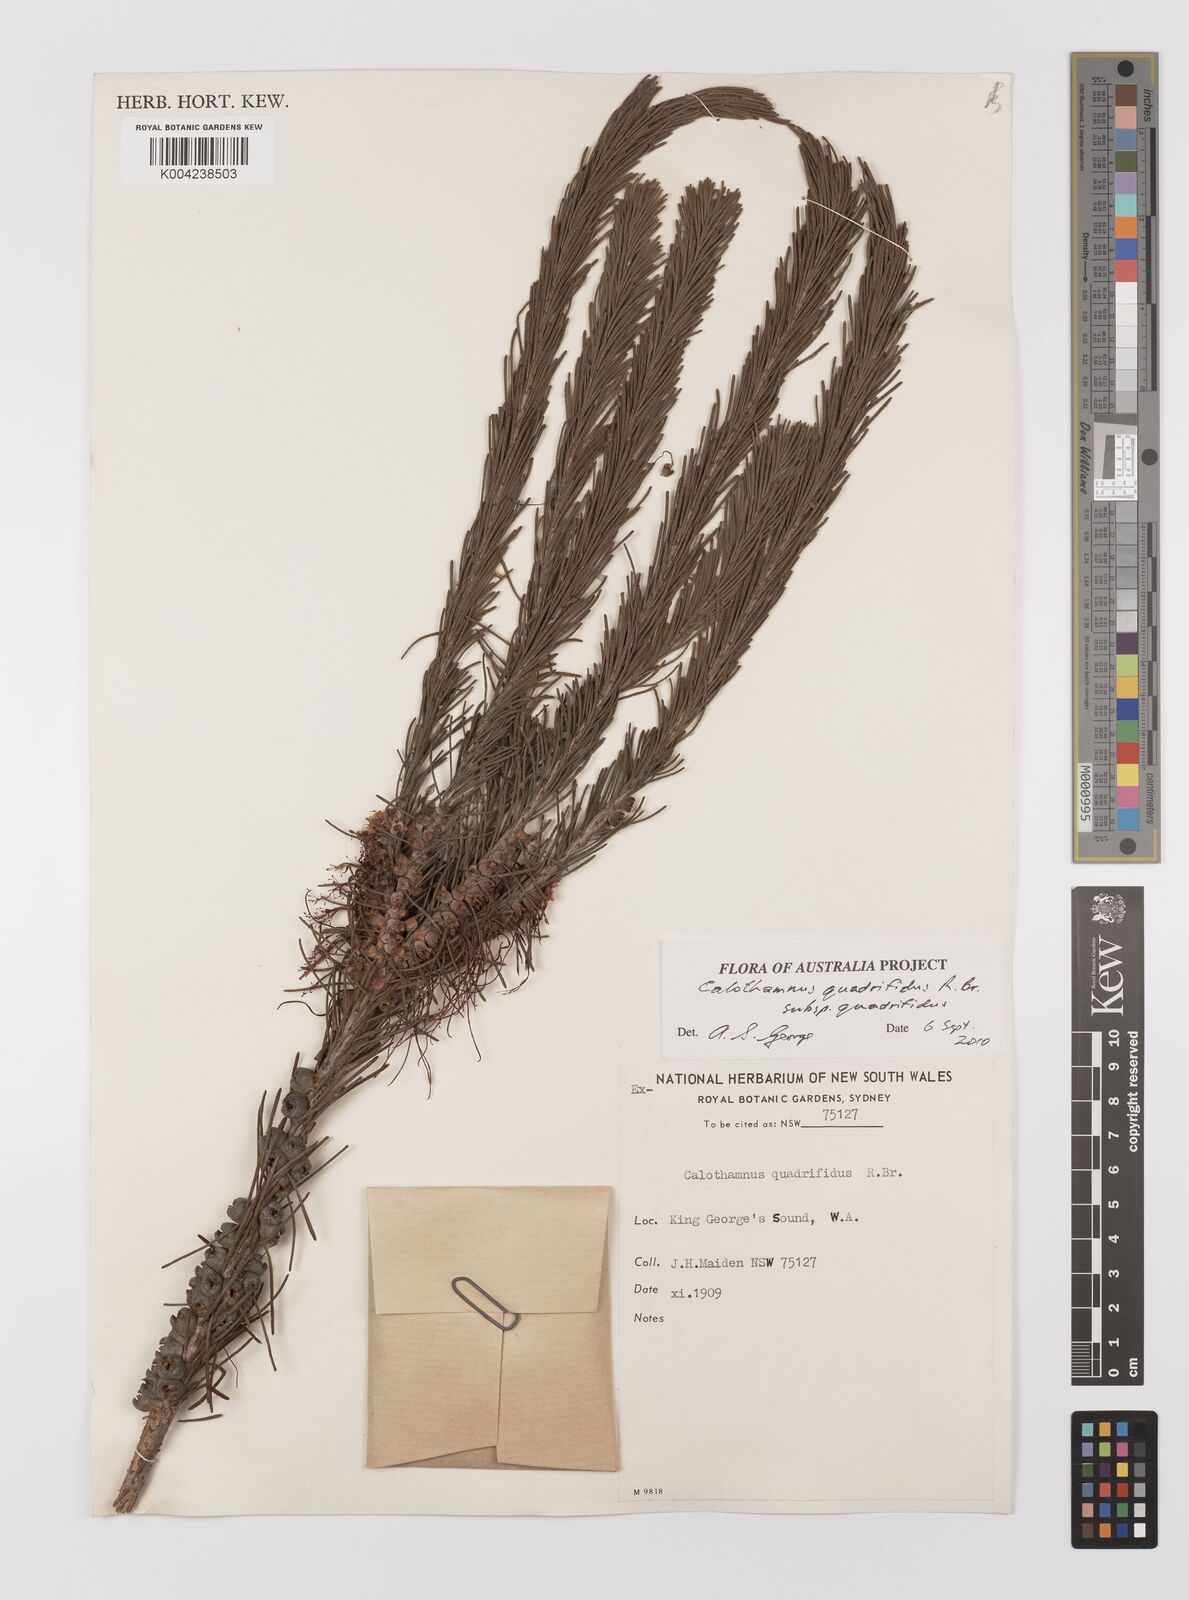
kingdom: Plantae
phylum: Tracheophyta
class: Magnoliopsida
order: Myrtales
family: Myrtaceae
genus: Melaleuca
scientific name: Melaleuca quadrifida
